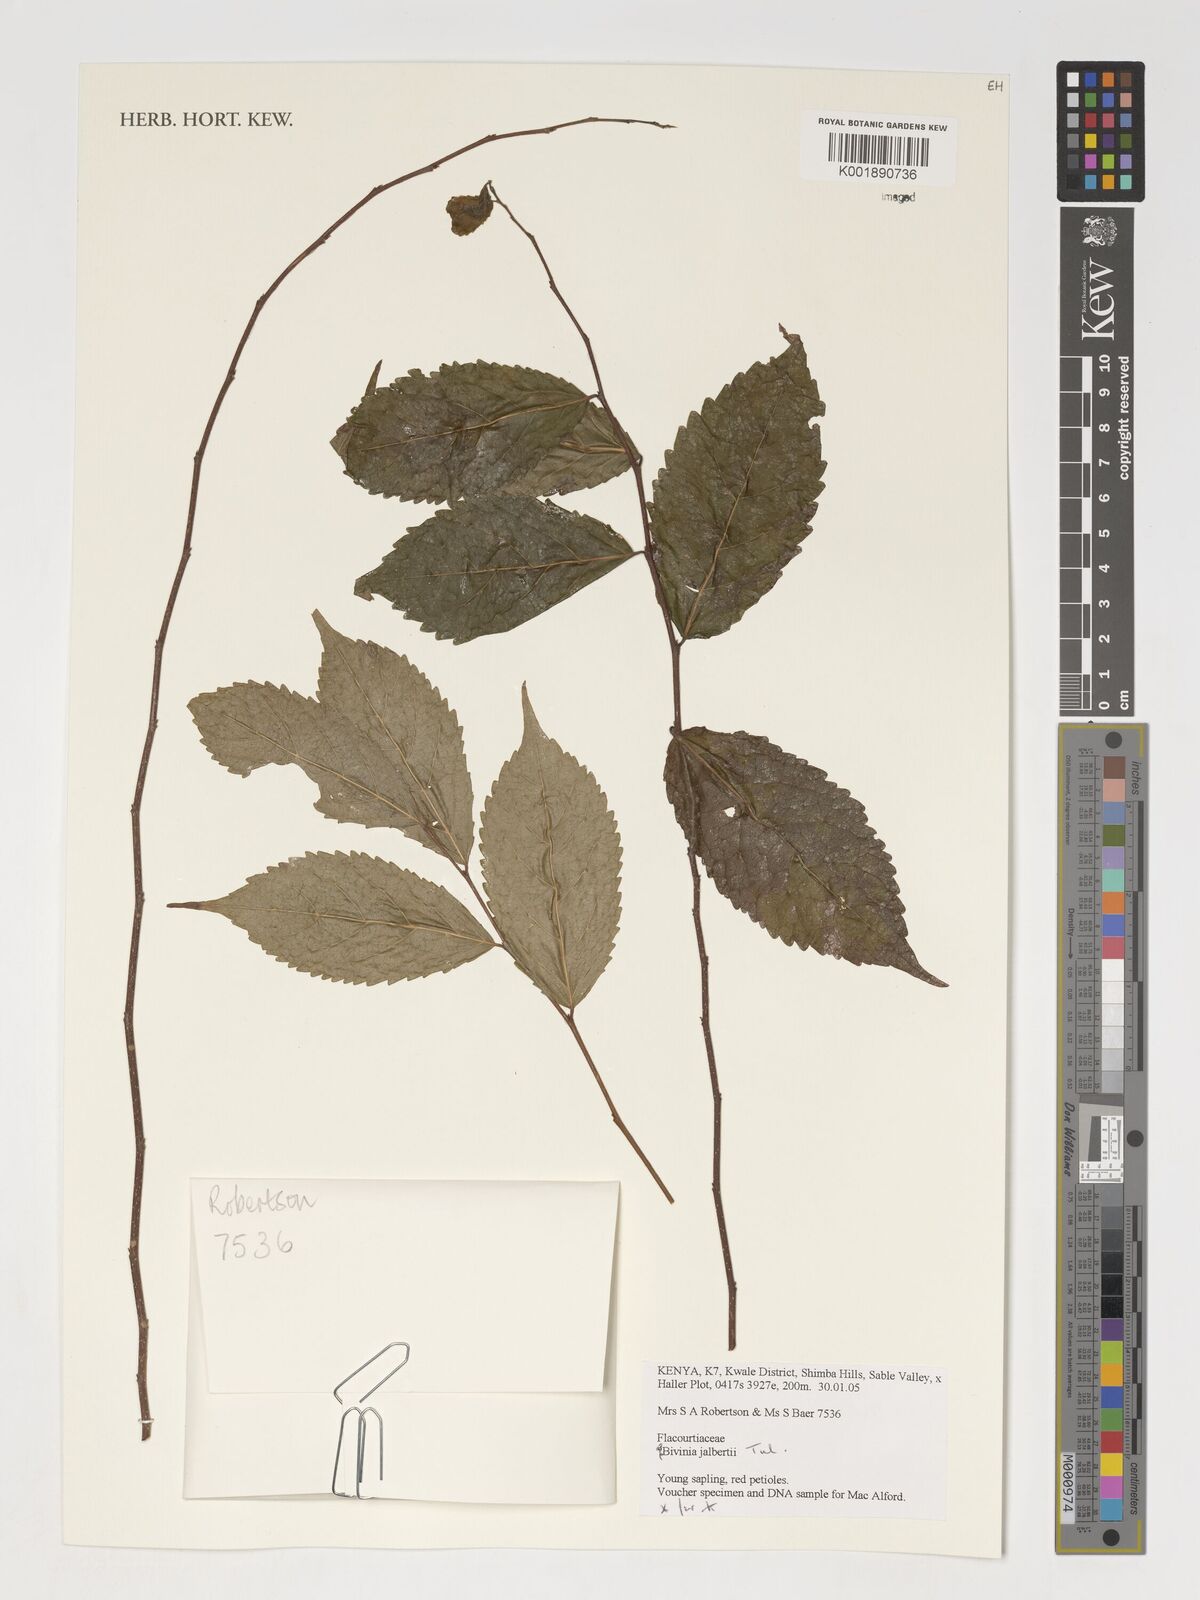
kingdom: Plantae
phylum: Tracheophyta
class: Magnoliopsida
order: Malpighiales
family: Salicaceae
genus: Bivinia
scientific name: Bivinia jalbertii
